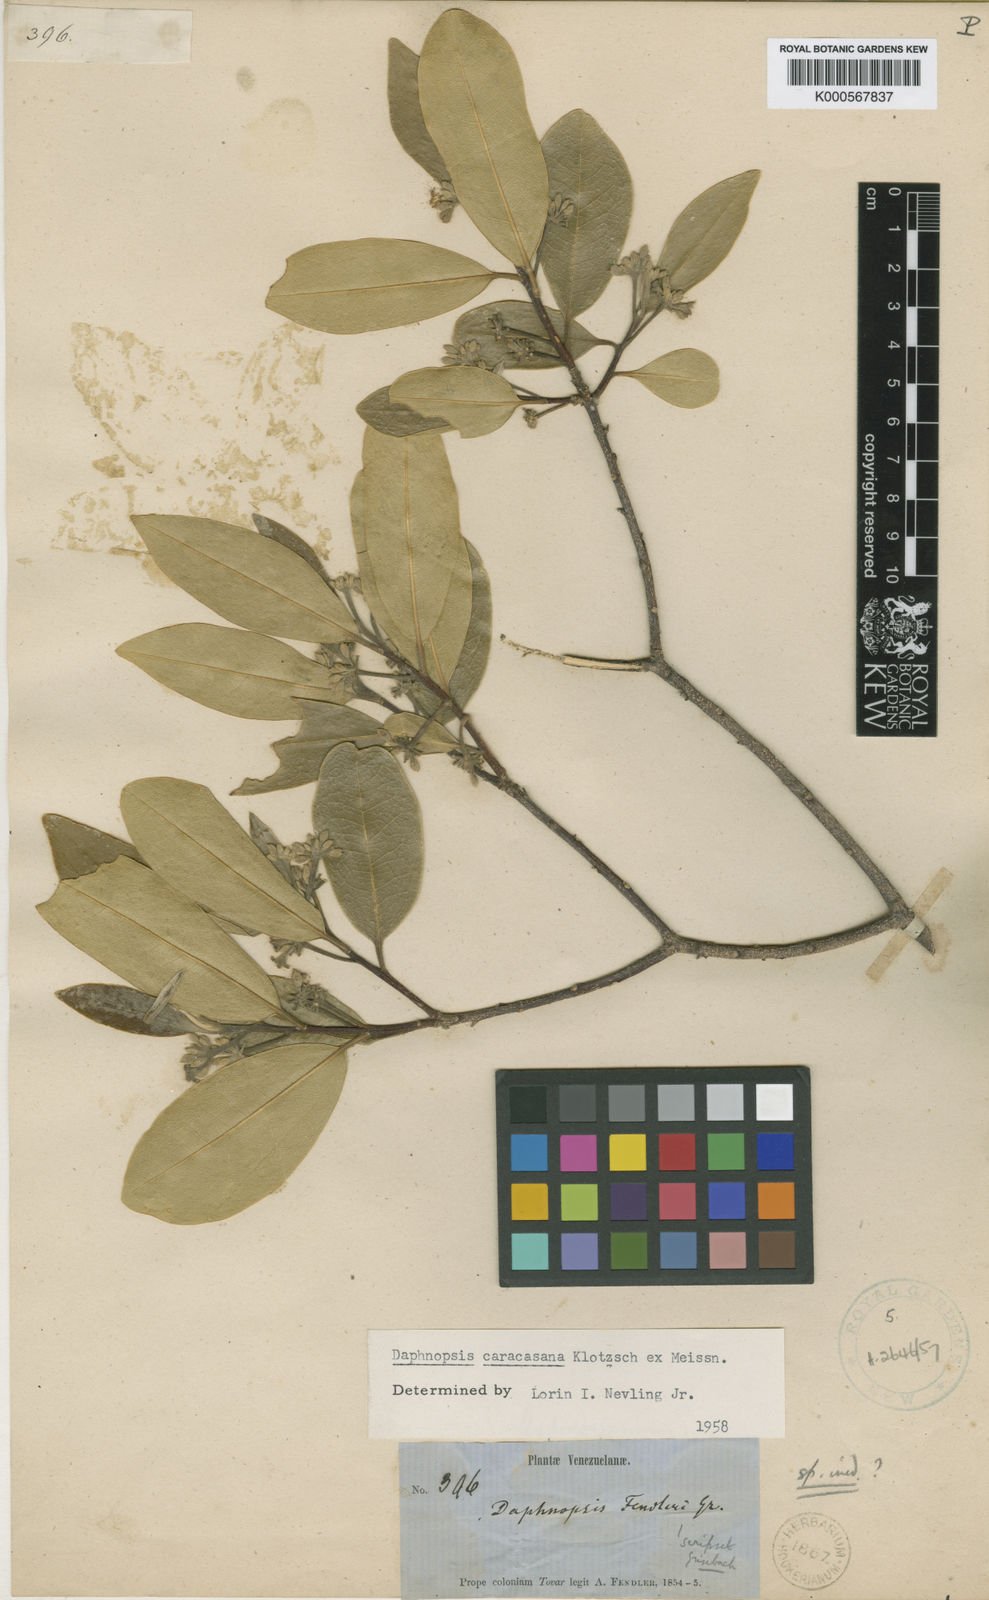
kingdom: Plantae
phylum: Tracheophyta
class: Magnoliopsida
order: Malvales
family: Thymelaeaceae
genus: Daphnopsis
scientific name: Daphnopsis caracasana
